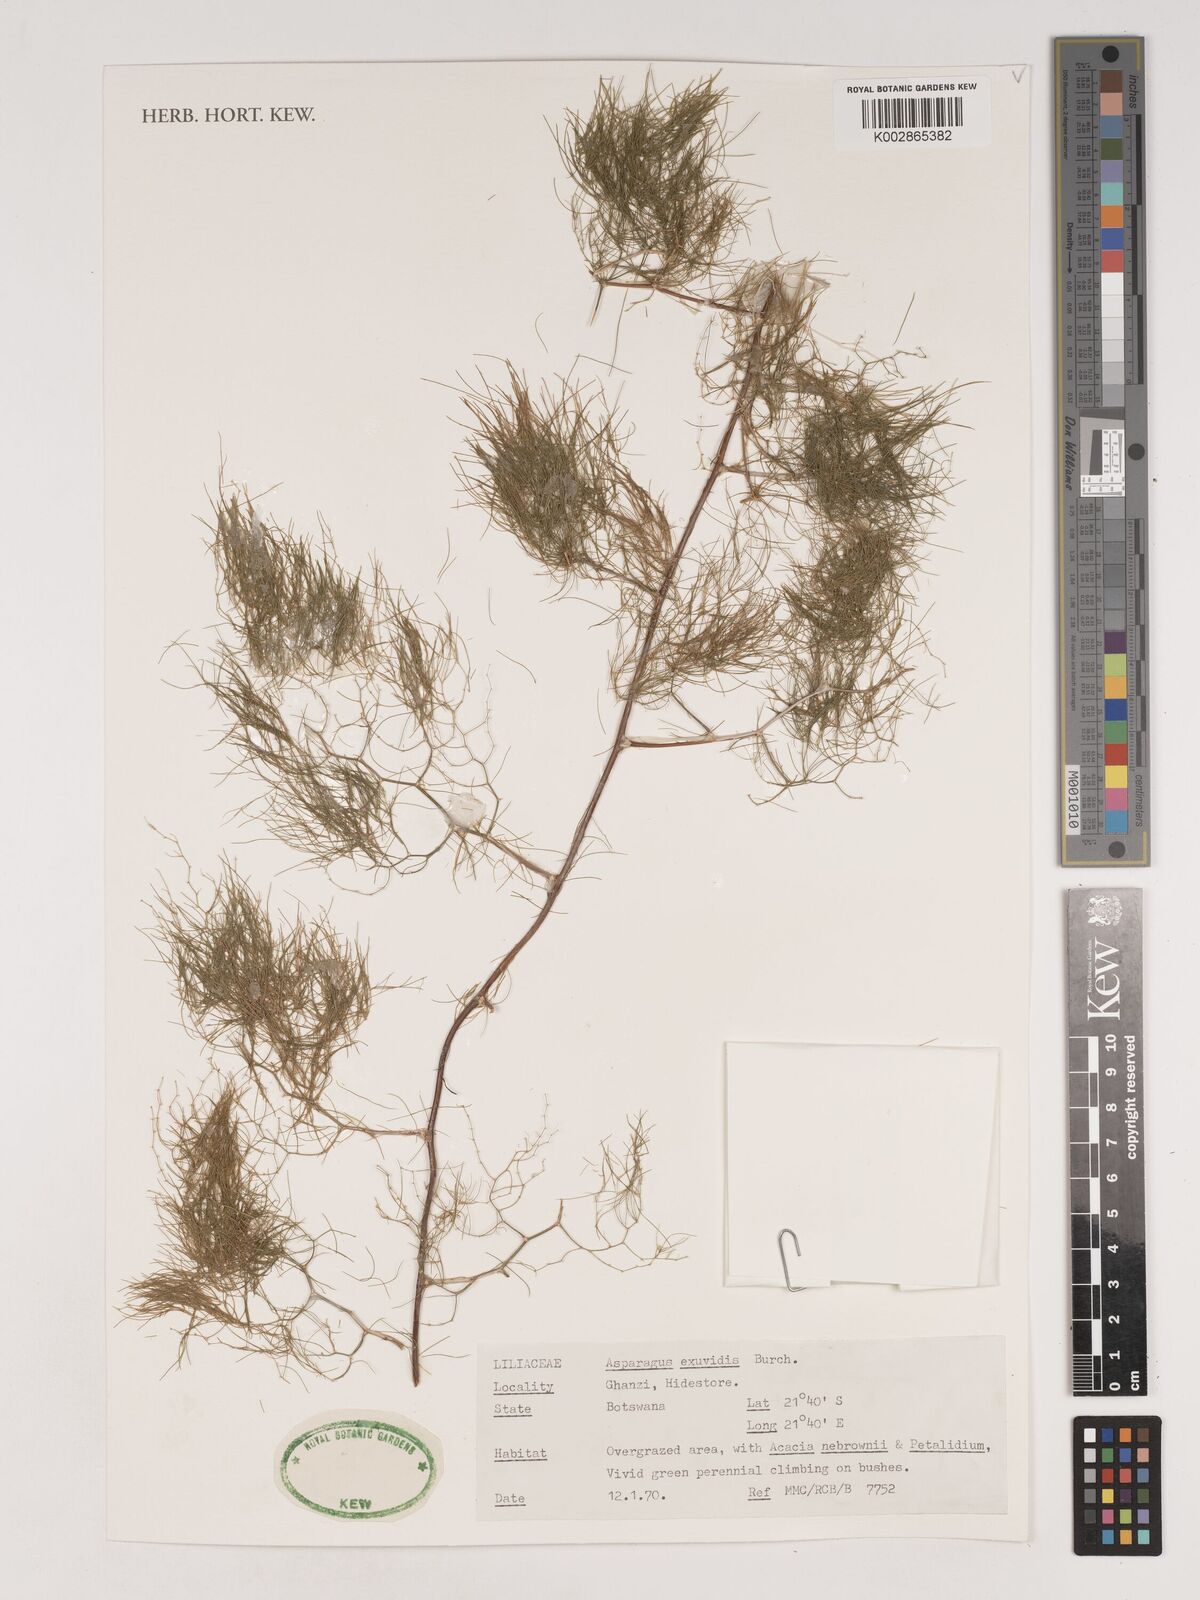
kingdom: Plantae
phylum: Tracheophyta
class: Liliopsida
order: Asparagales
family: Asparagaceae
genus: Asparagus
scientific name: Asparagus exuvialis
